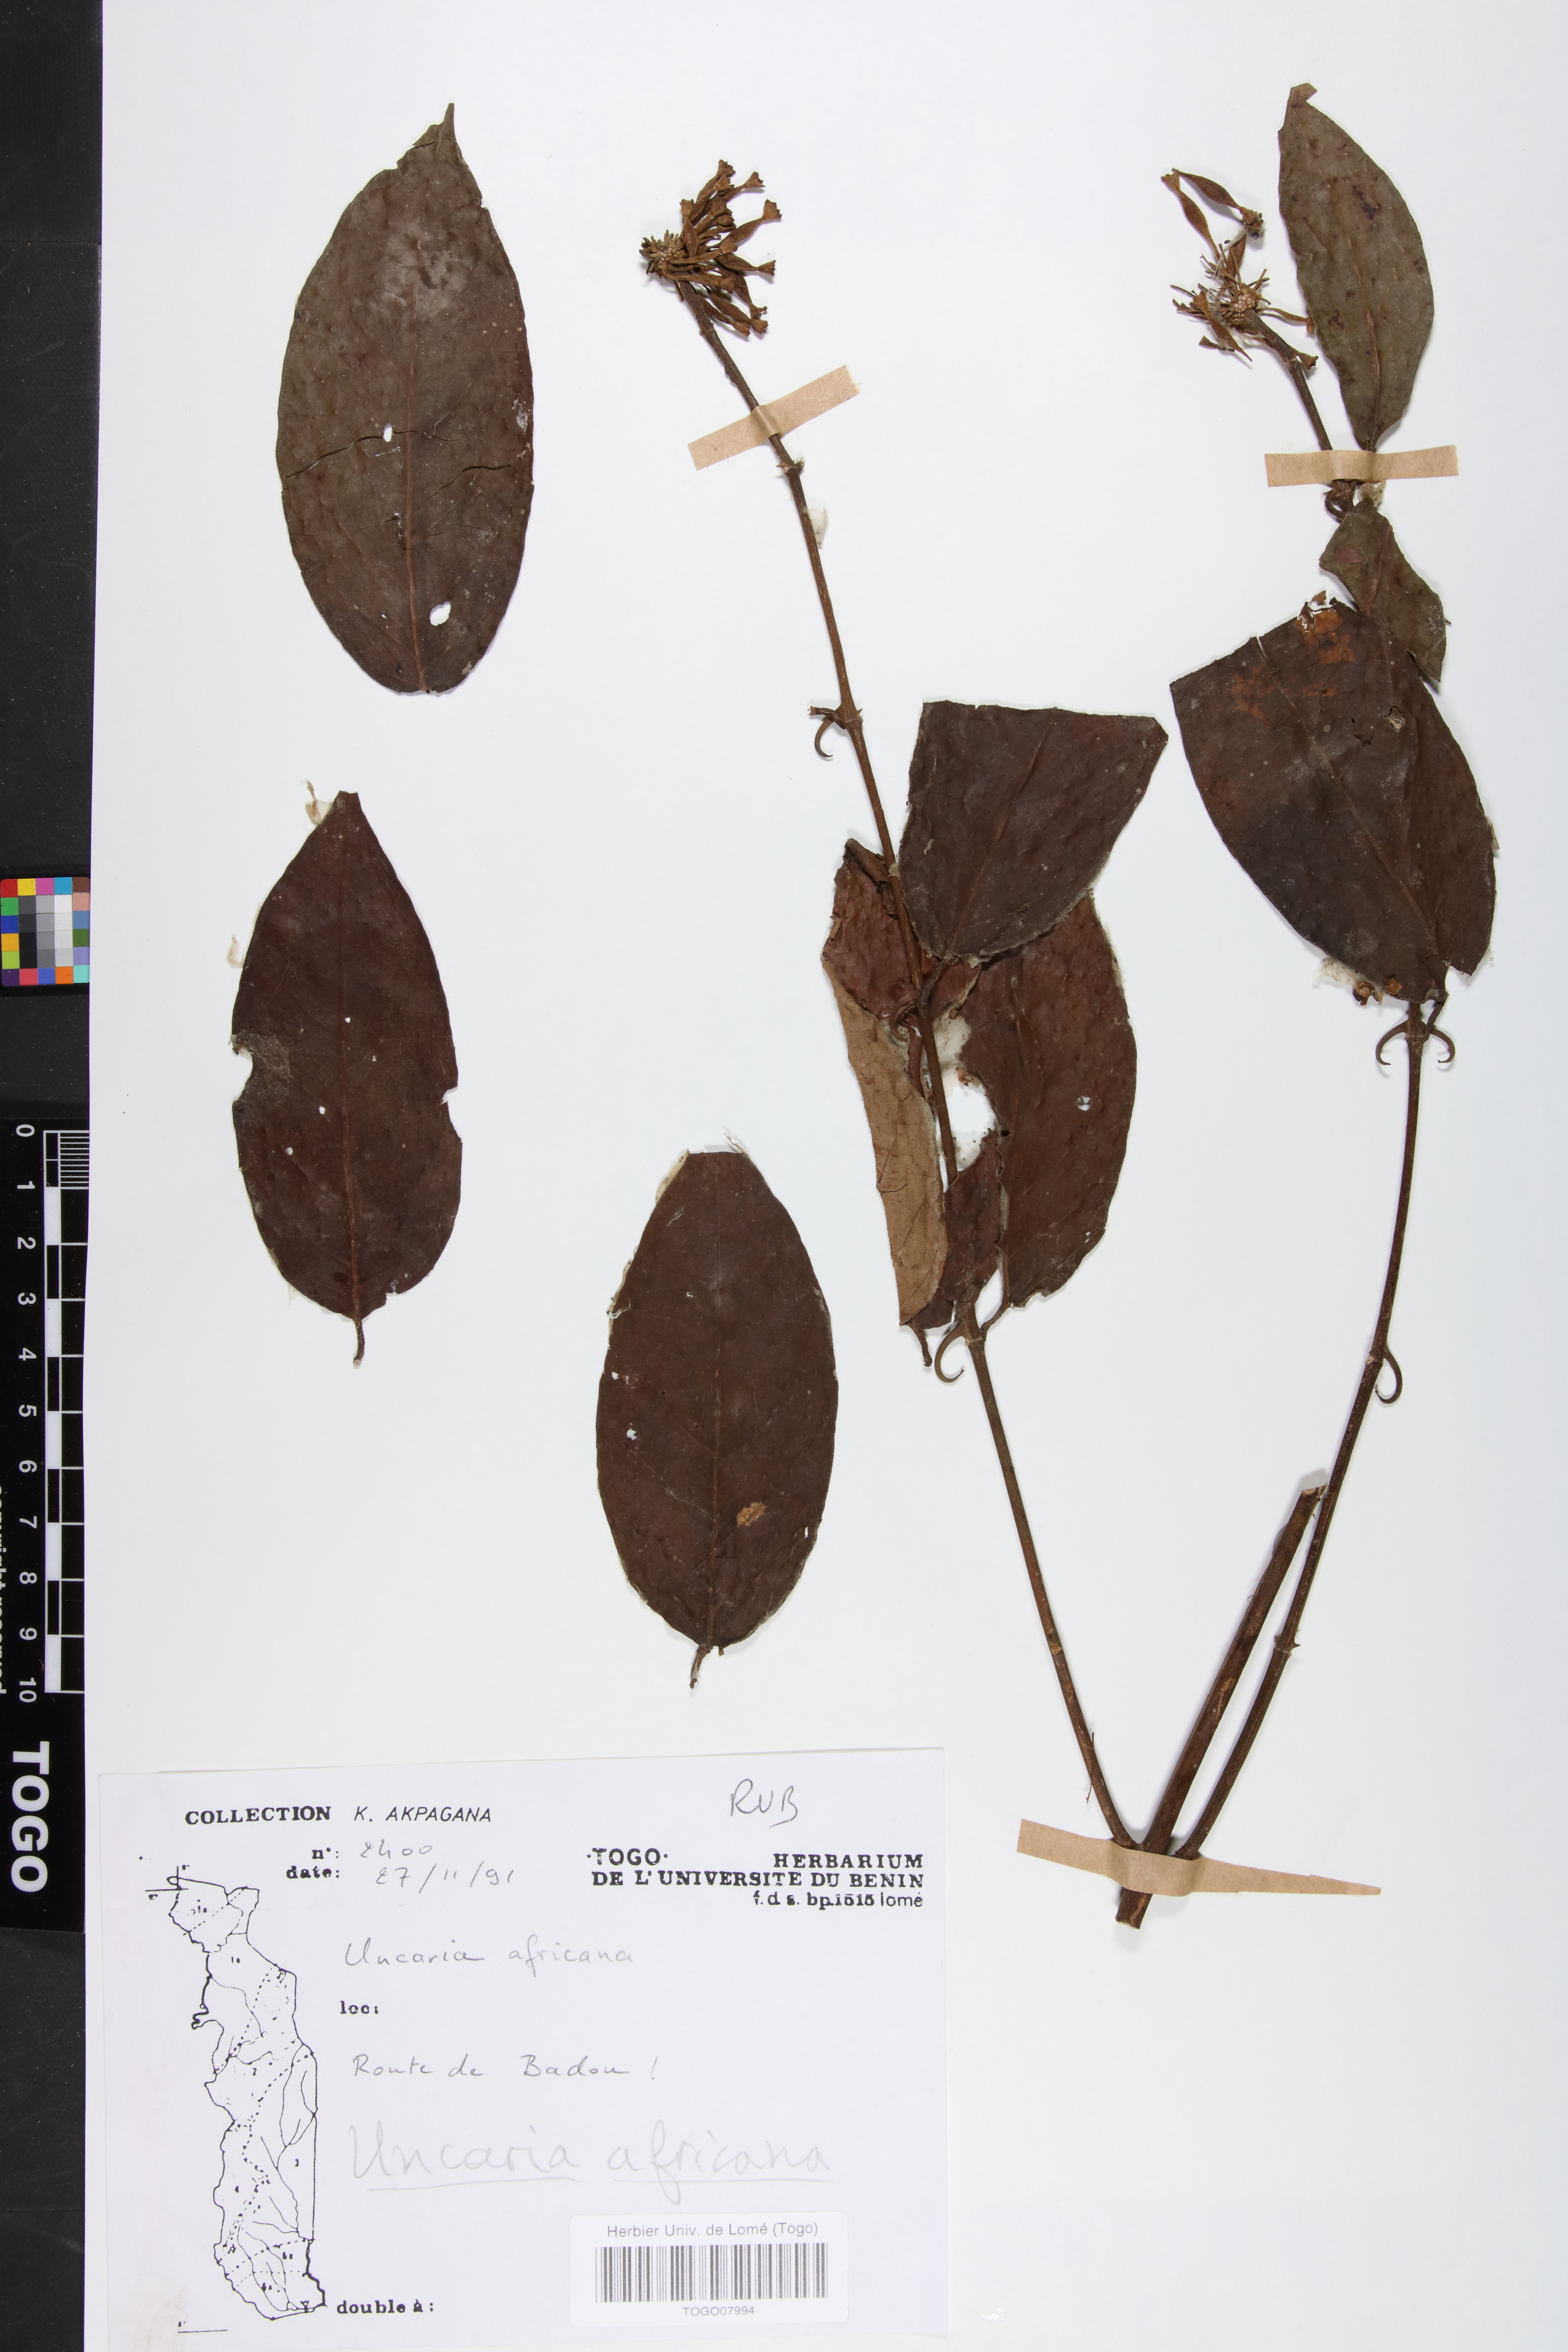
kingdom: Plantae
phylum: Tracheophyta
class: Magnoliopsida
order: Gentianales
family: Rubiaceae
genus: Uncaria
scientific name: Uncaria africana
